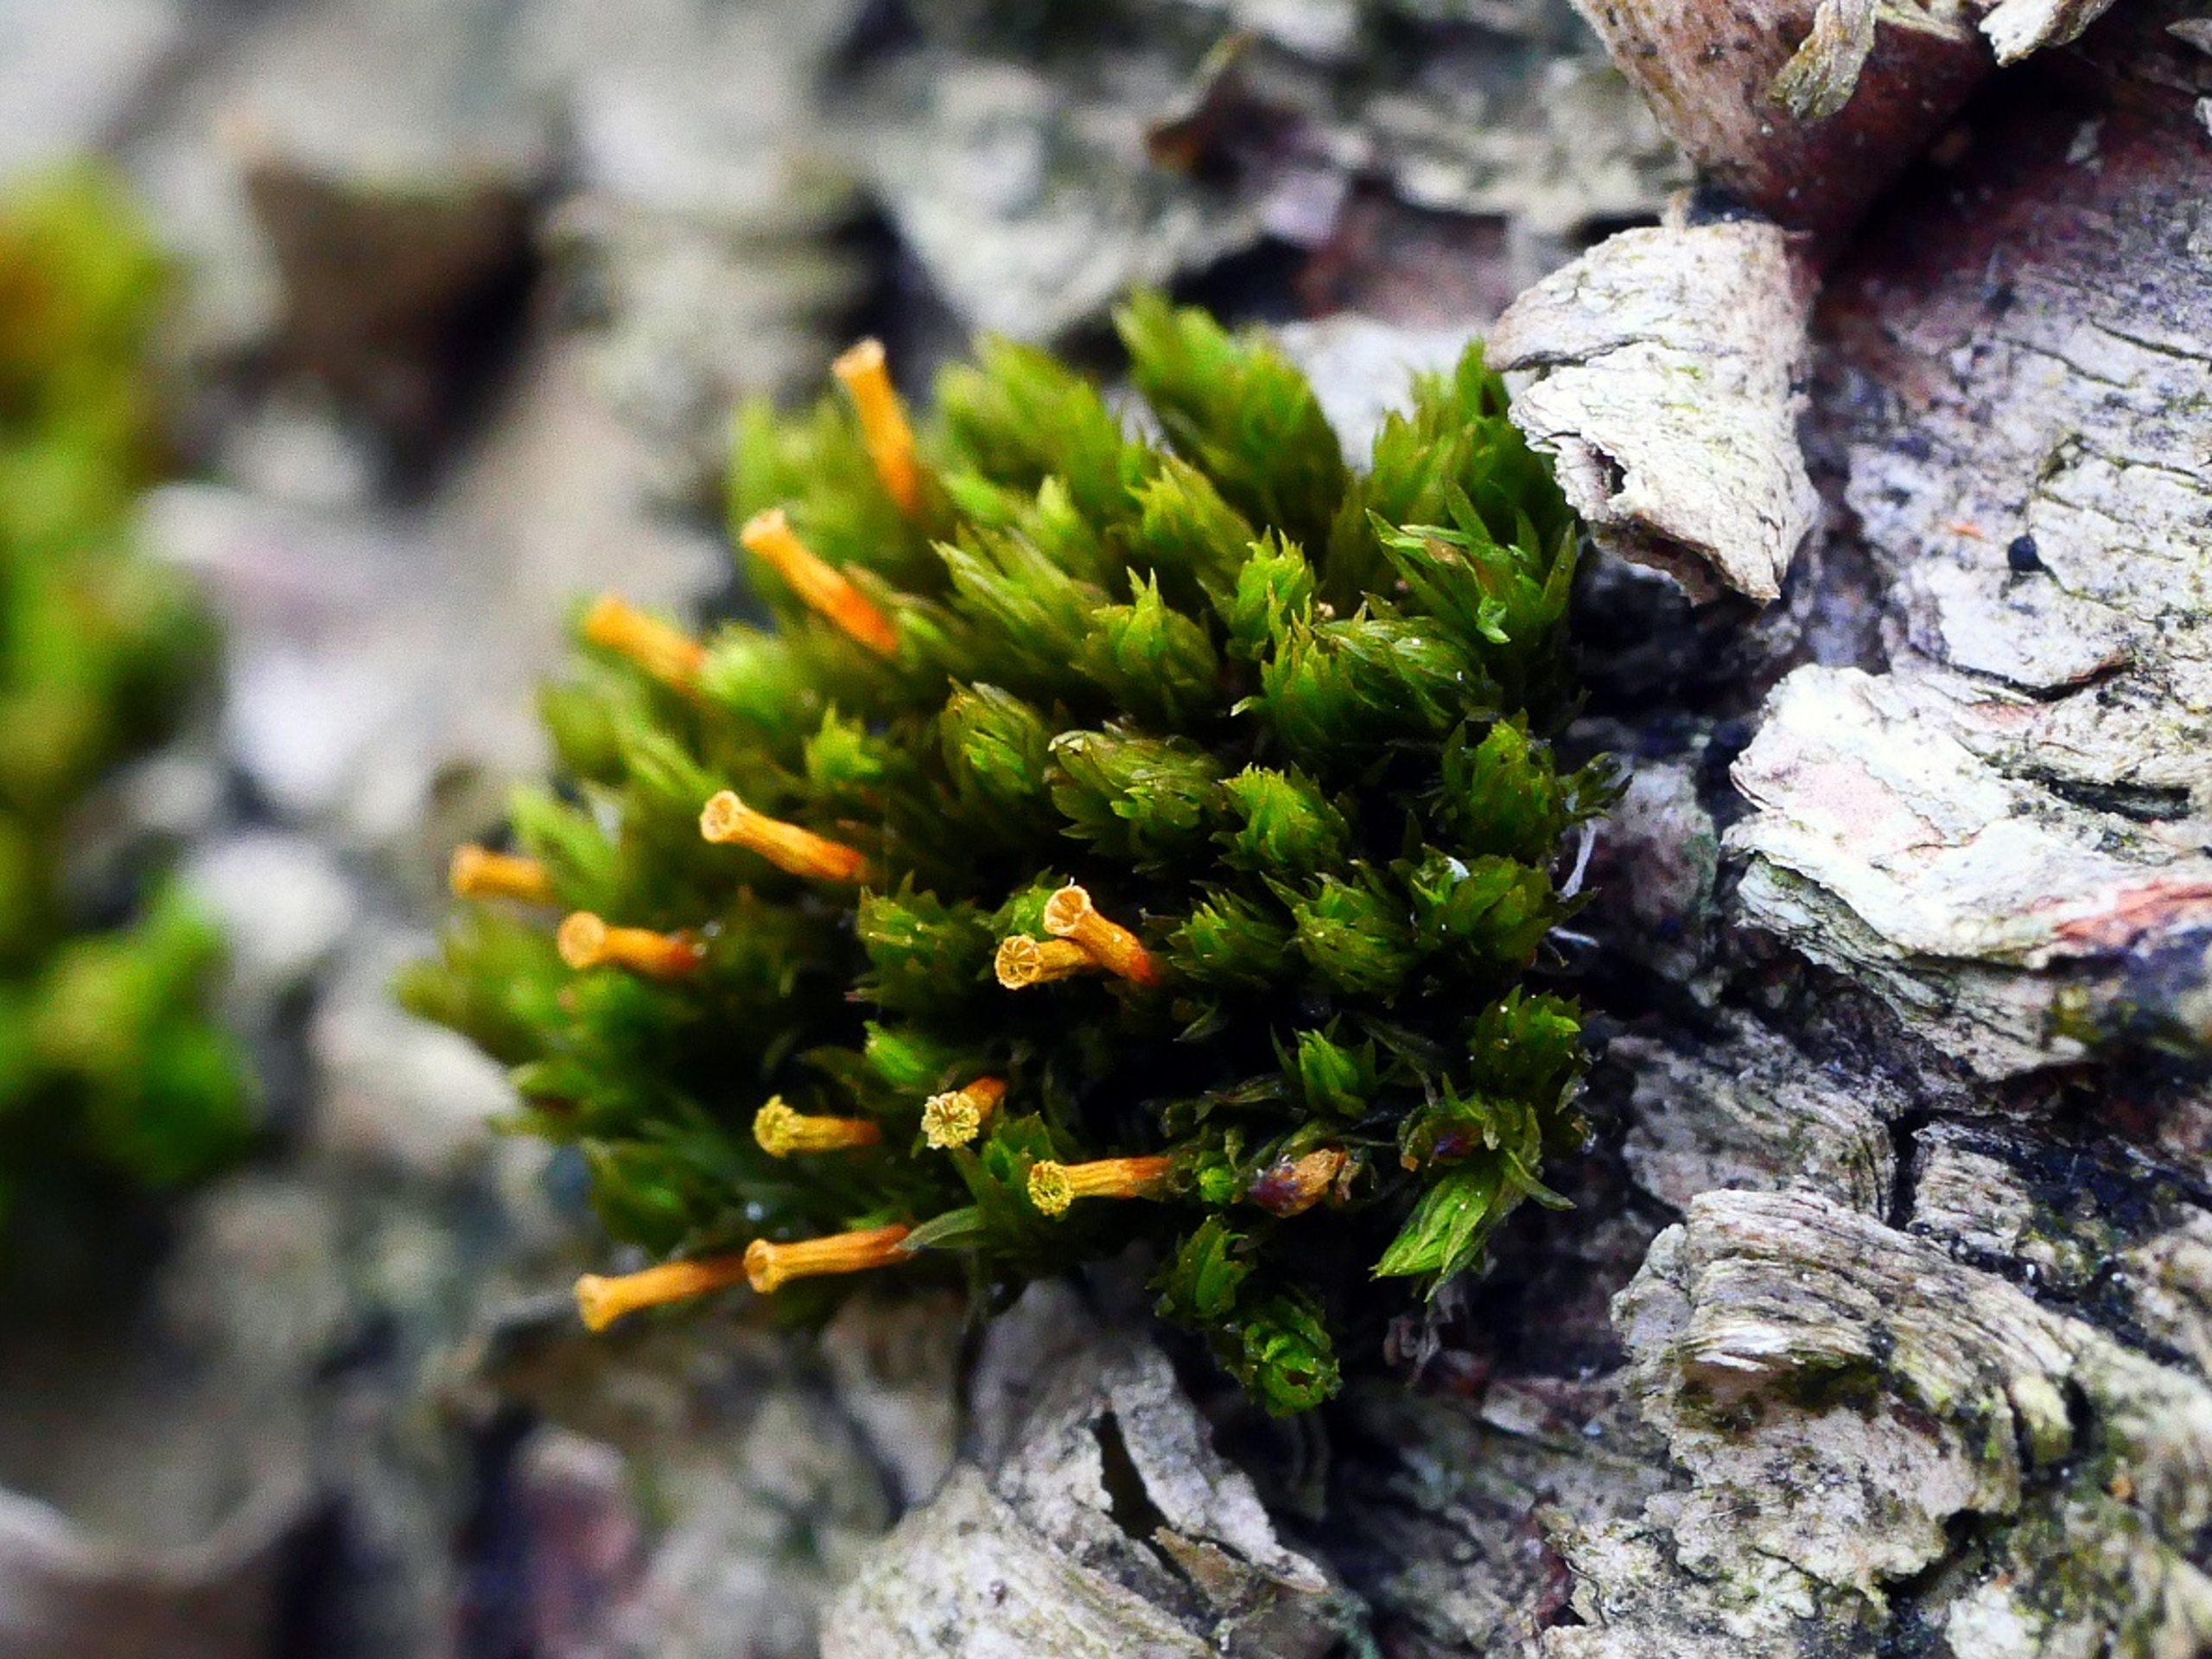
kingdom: Plantae
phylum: Bryophyta
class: Bryopsida
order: Orthotrichales
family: Orthotrichaceae
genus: Orthotrichum
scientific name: Orthotrichum stramineum
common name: Strågul furehætte
